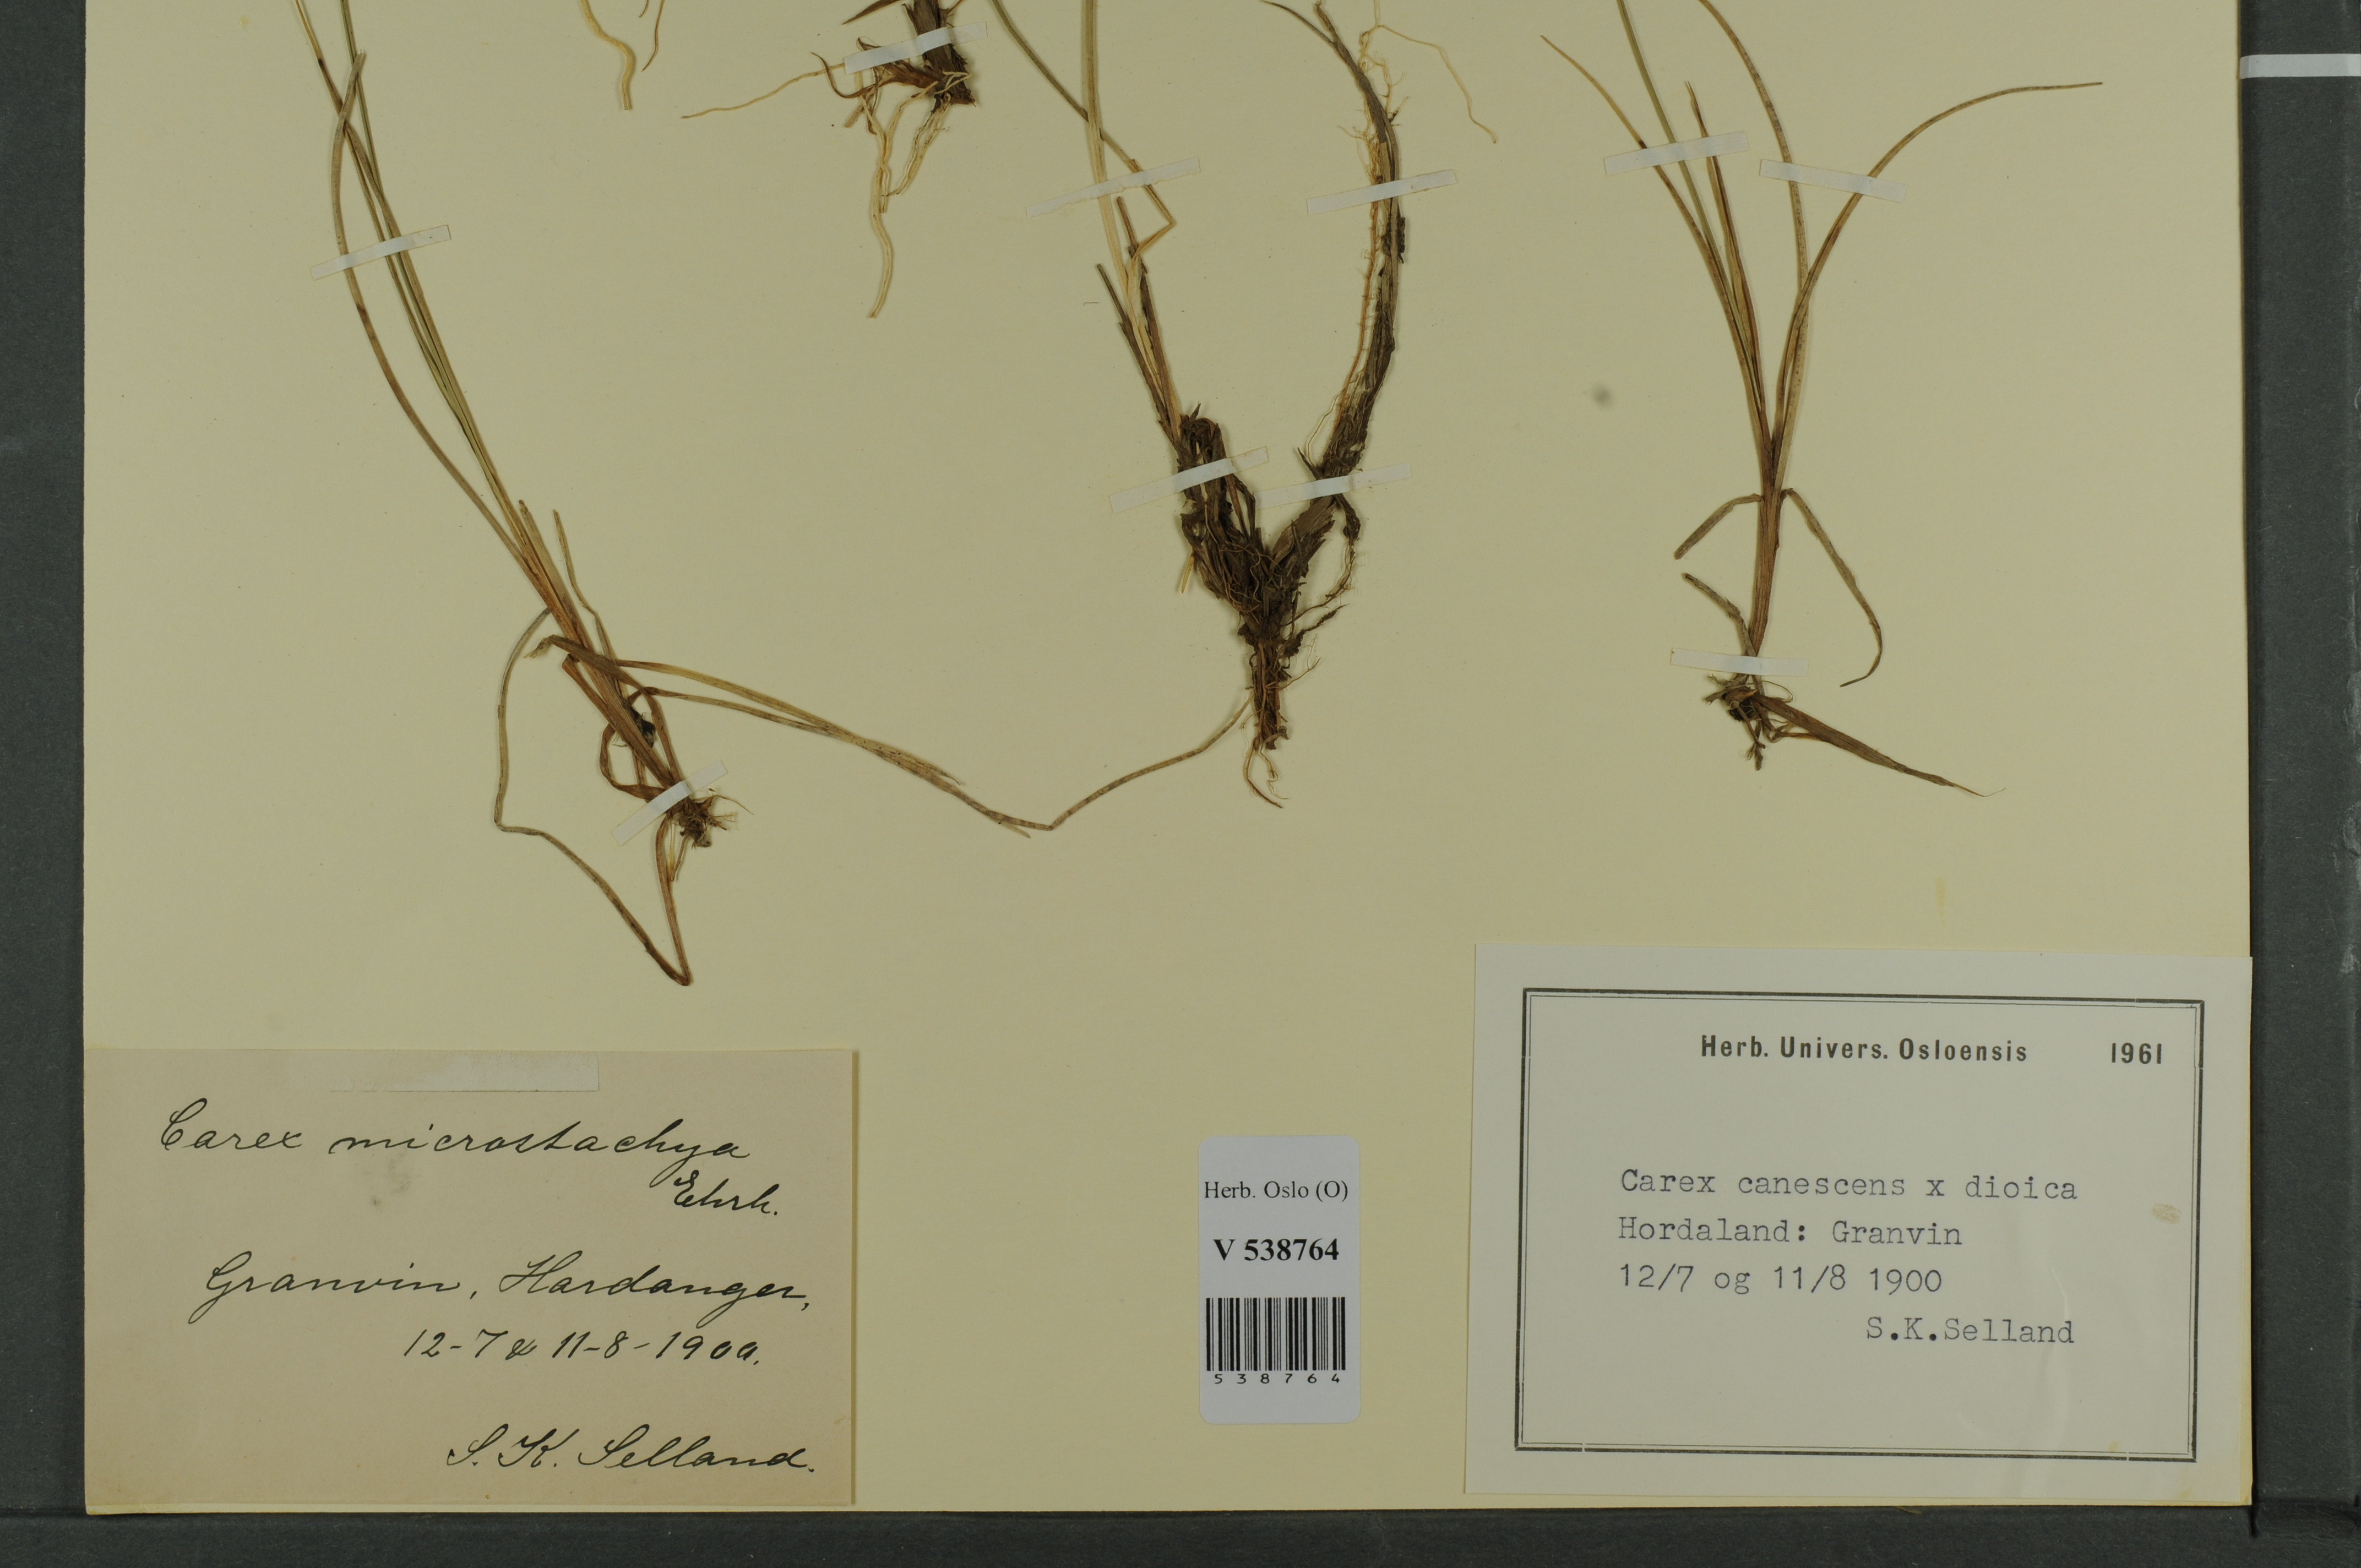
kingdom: Plantae
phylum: Tracheophyta
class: Liliopsida
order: Poales
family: Cyperaceae
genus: Carex
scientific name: Carex
